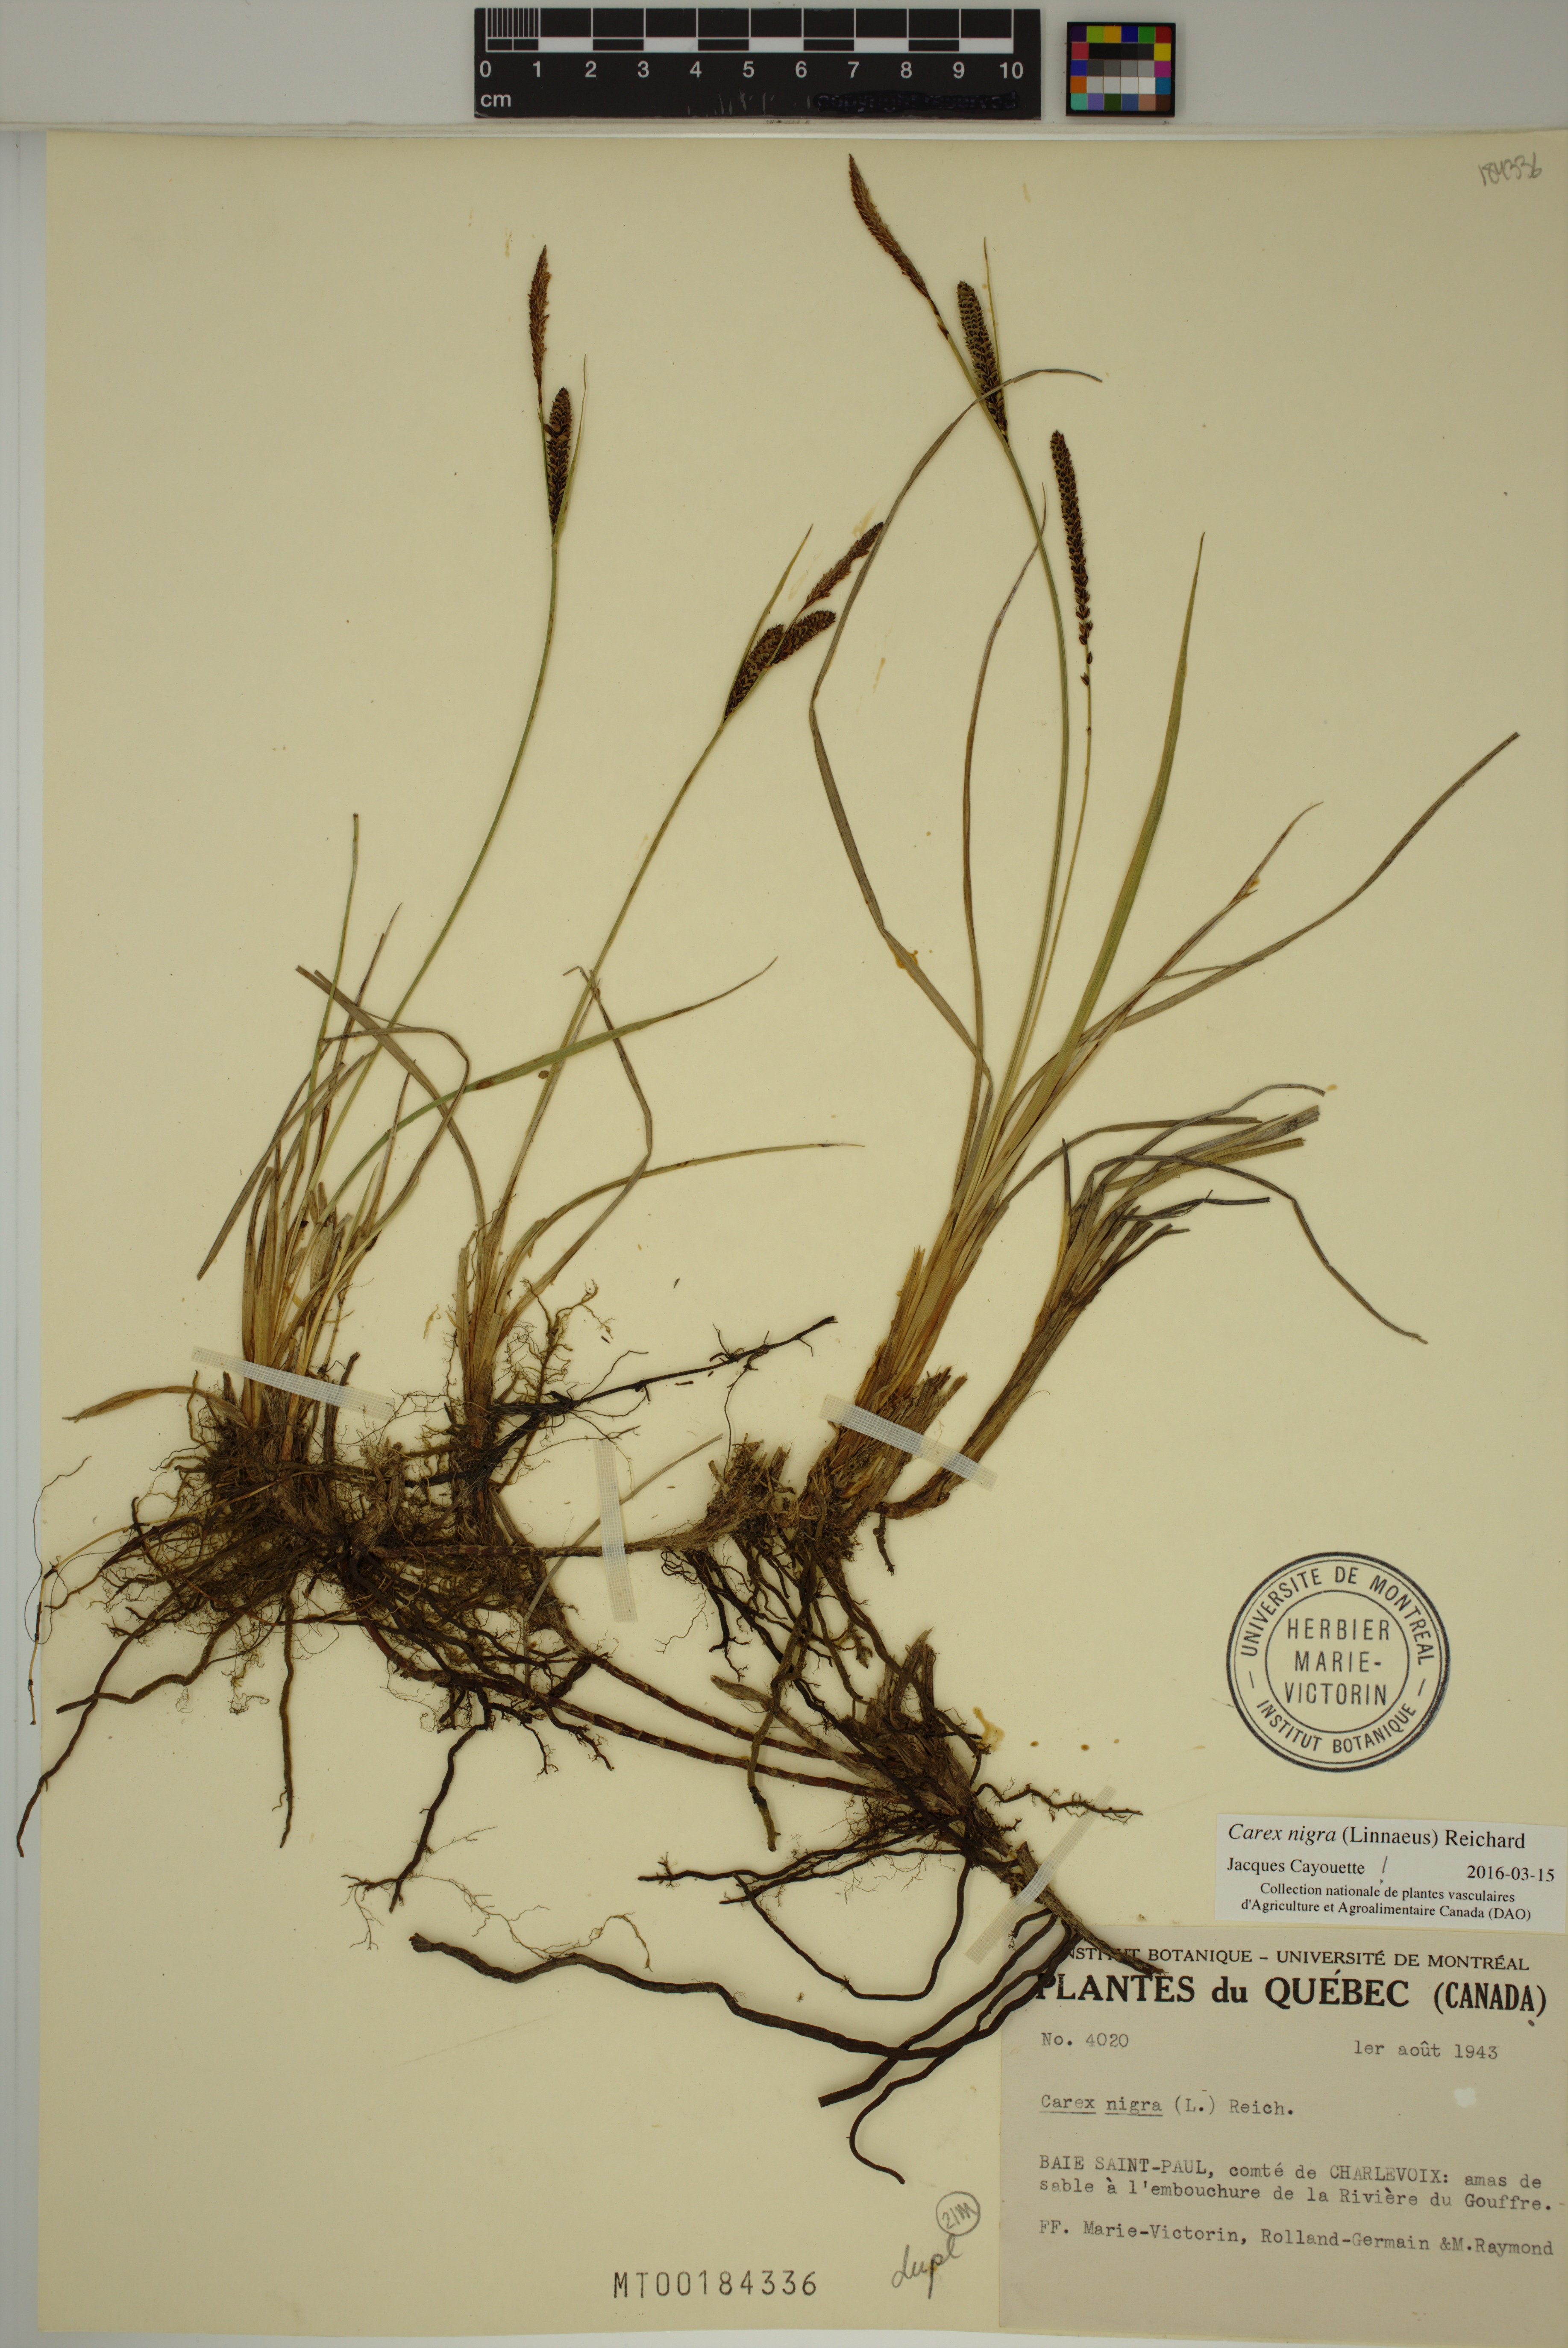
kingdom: Plantae
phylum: Tracheophyta
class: Liliopsida
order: Poales
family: Cyperaceae
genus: Carex
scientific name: Carex nigra
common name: Common sedge
